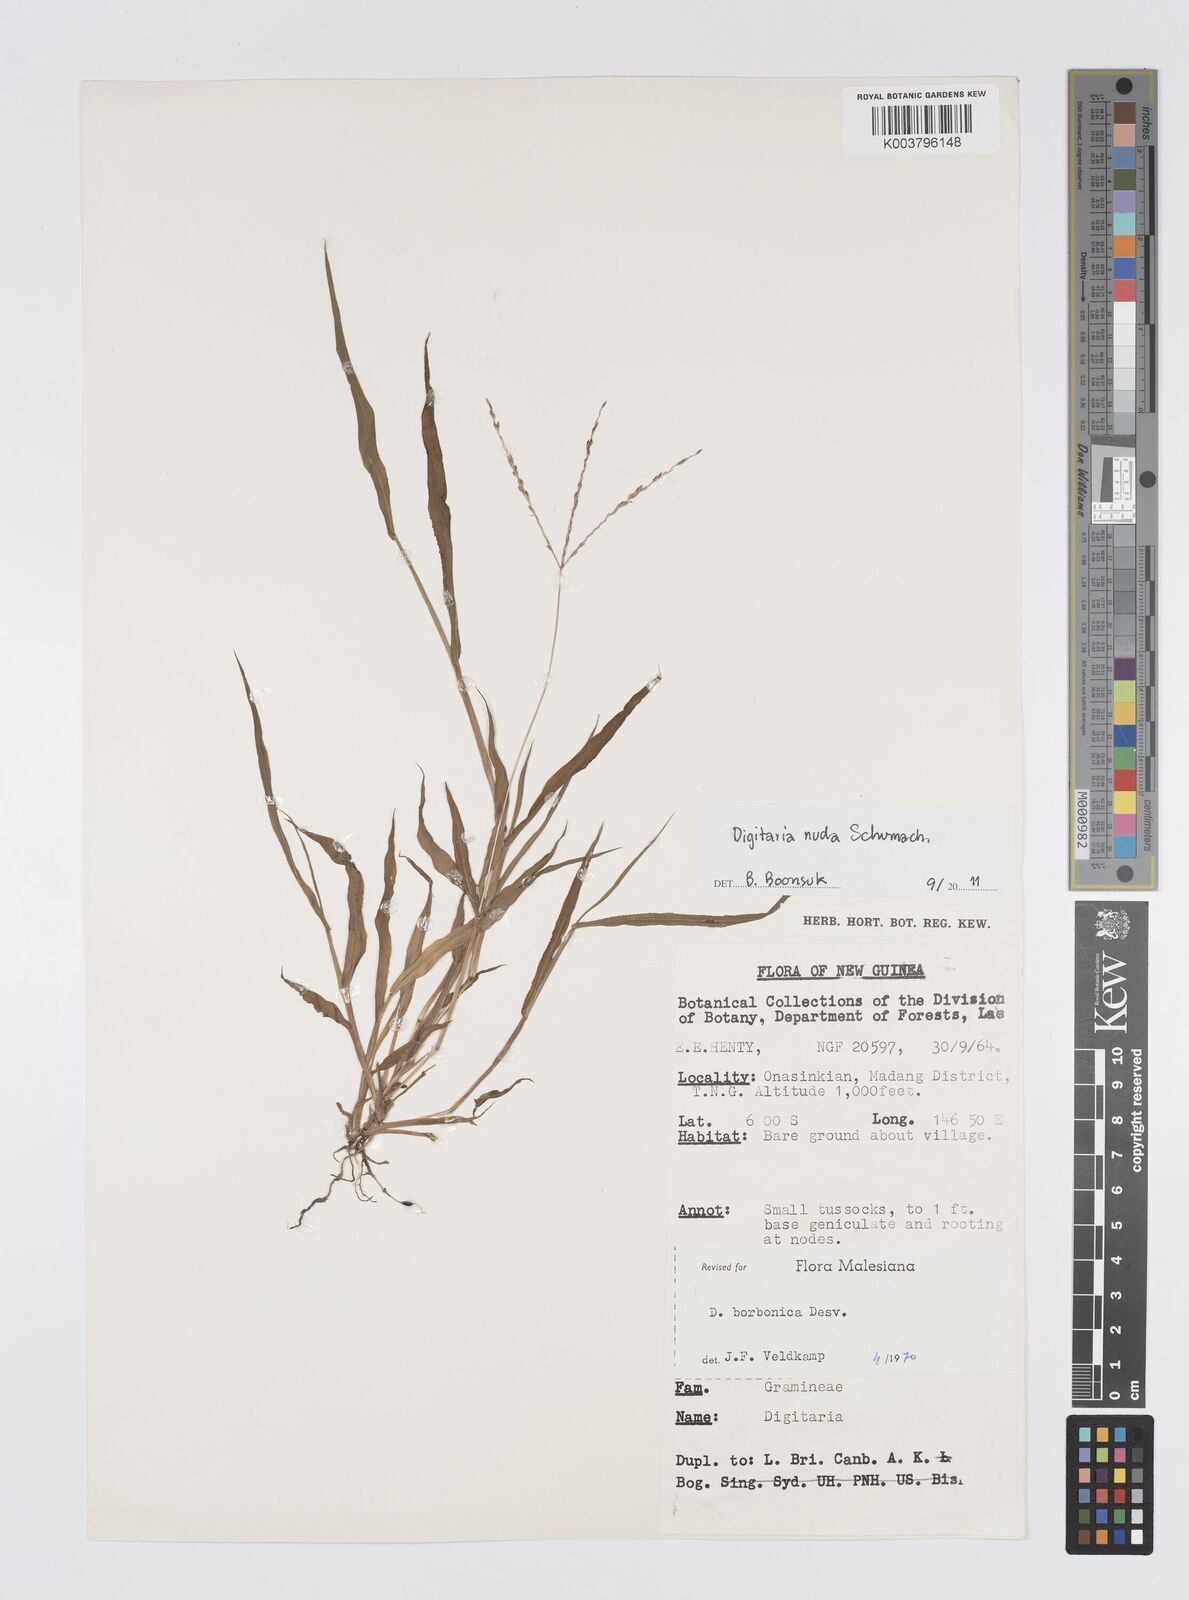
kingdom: Plantae
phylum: Tracheophyta
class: Liliopsida
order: Poales
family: Poaceae
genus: Digitaria
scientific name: Digitaria nuda
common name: Naked crabgrass
